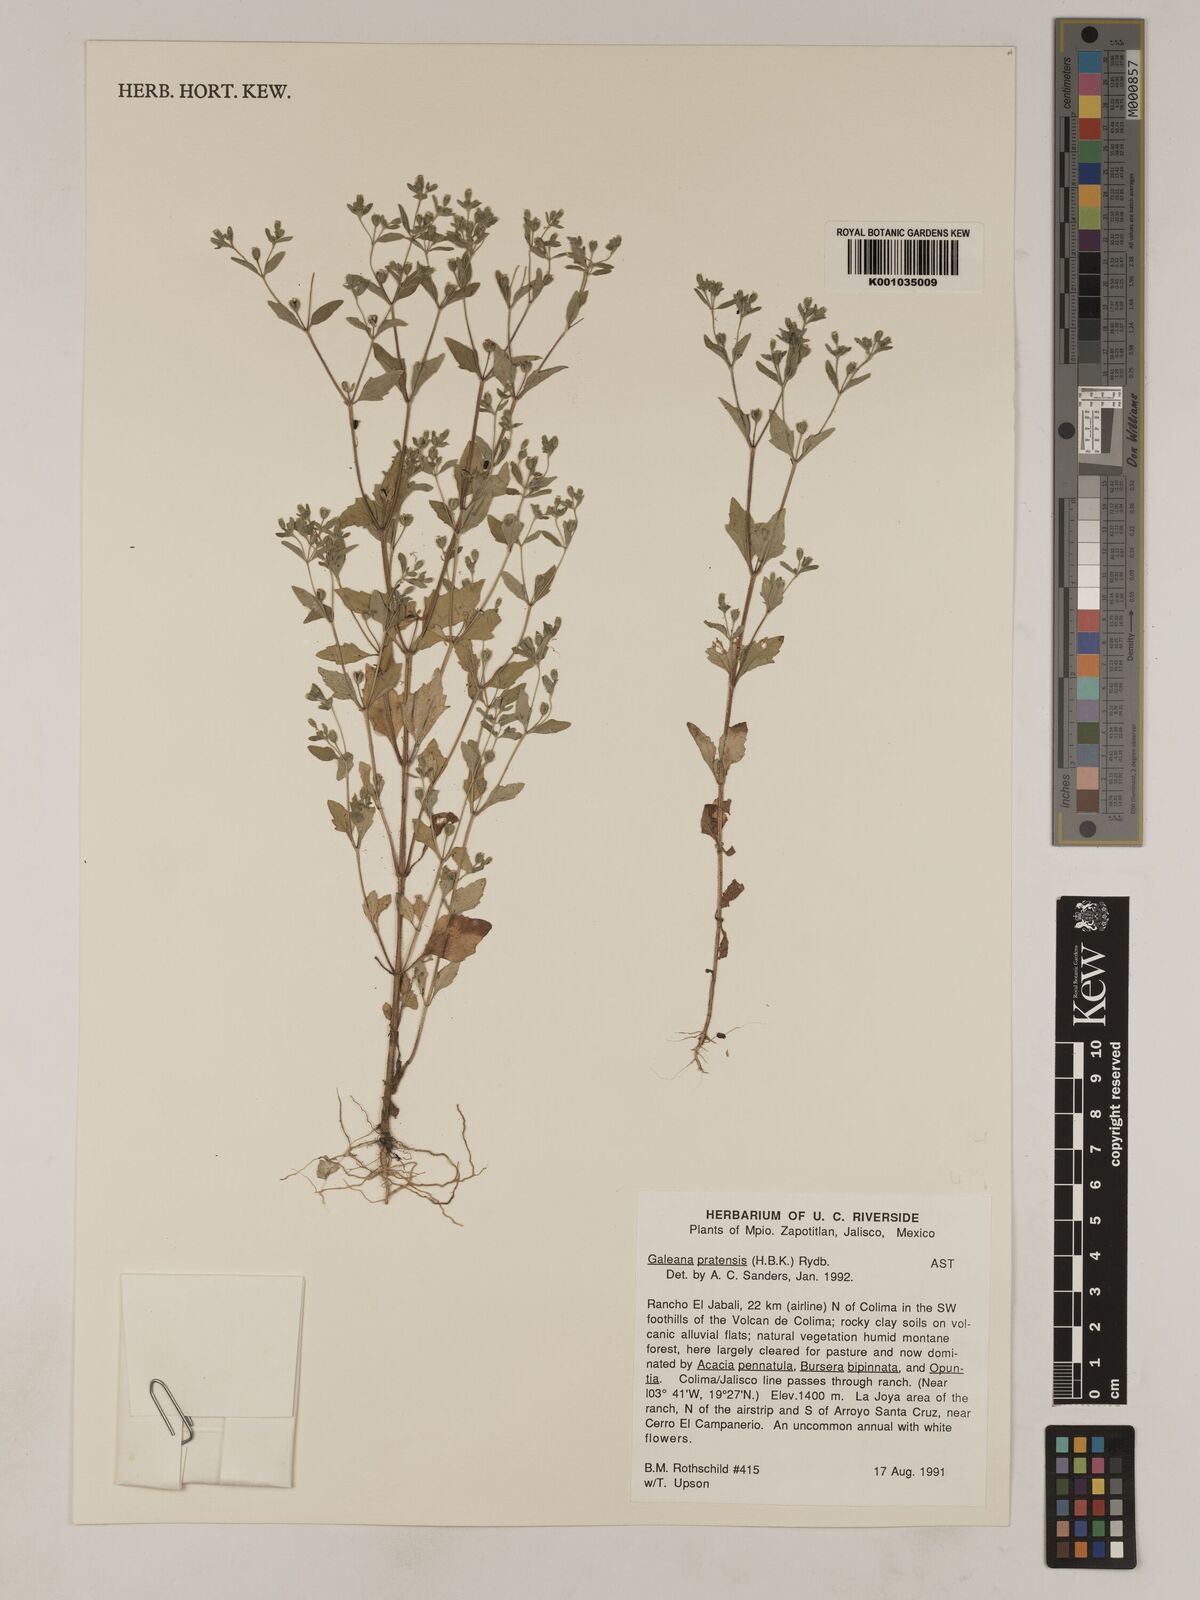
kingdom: Plantae
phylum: Tracheophyta
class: Magnoliopsida
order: Asterales
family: Asteraceae
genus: Galeana
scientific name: Galeana pratensis
